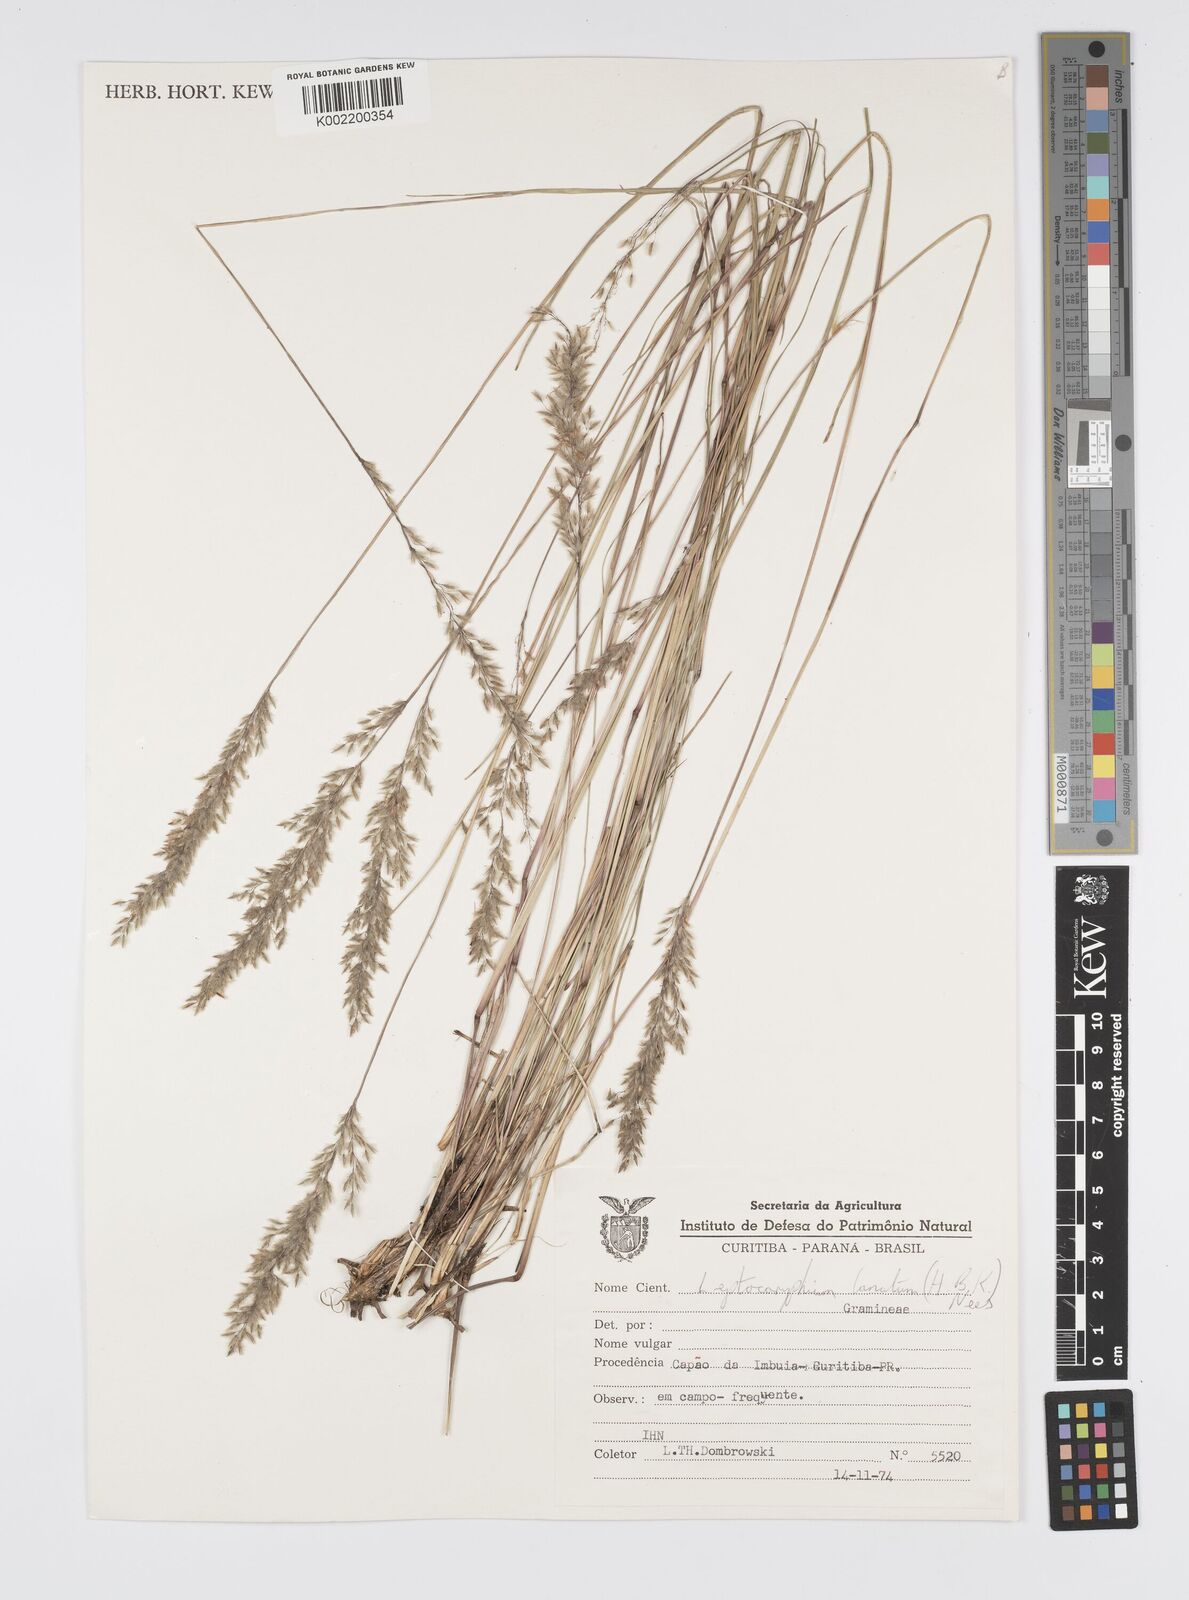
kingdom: Plantae
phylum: Tracheophyta
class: Liliopsida
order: Poales
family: Poaceae
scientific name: Poaceae
